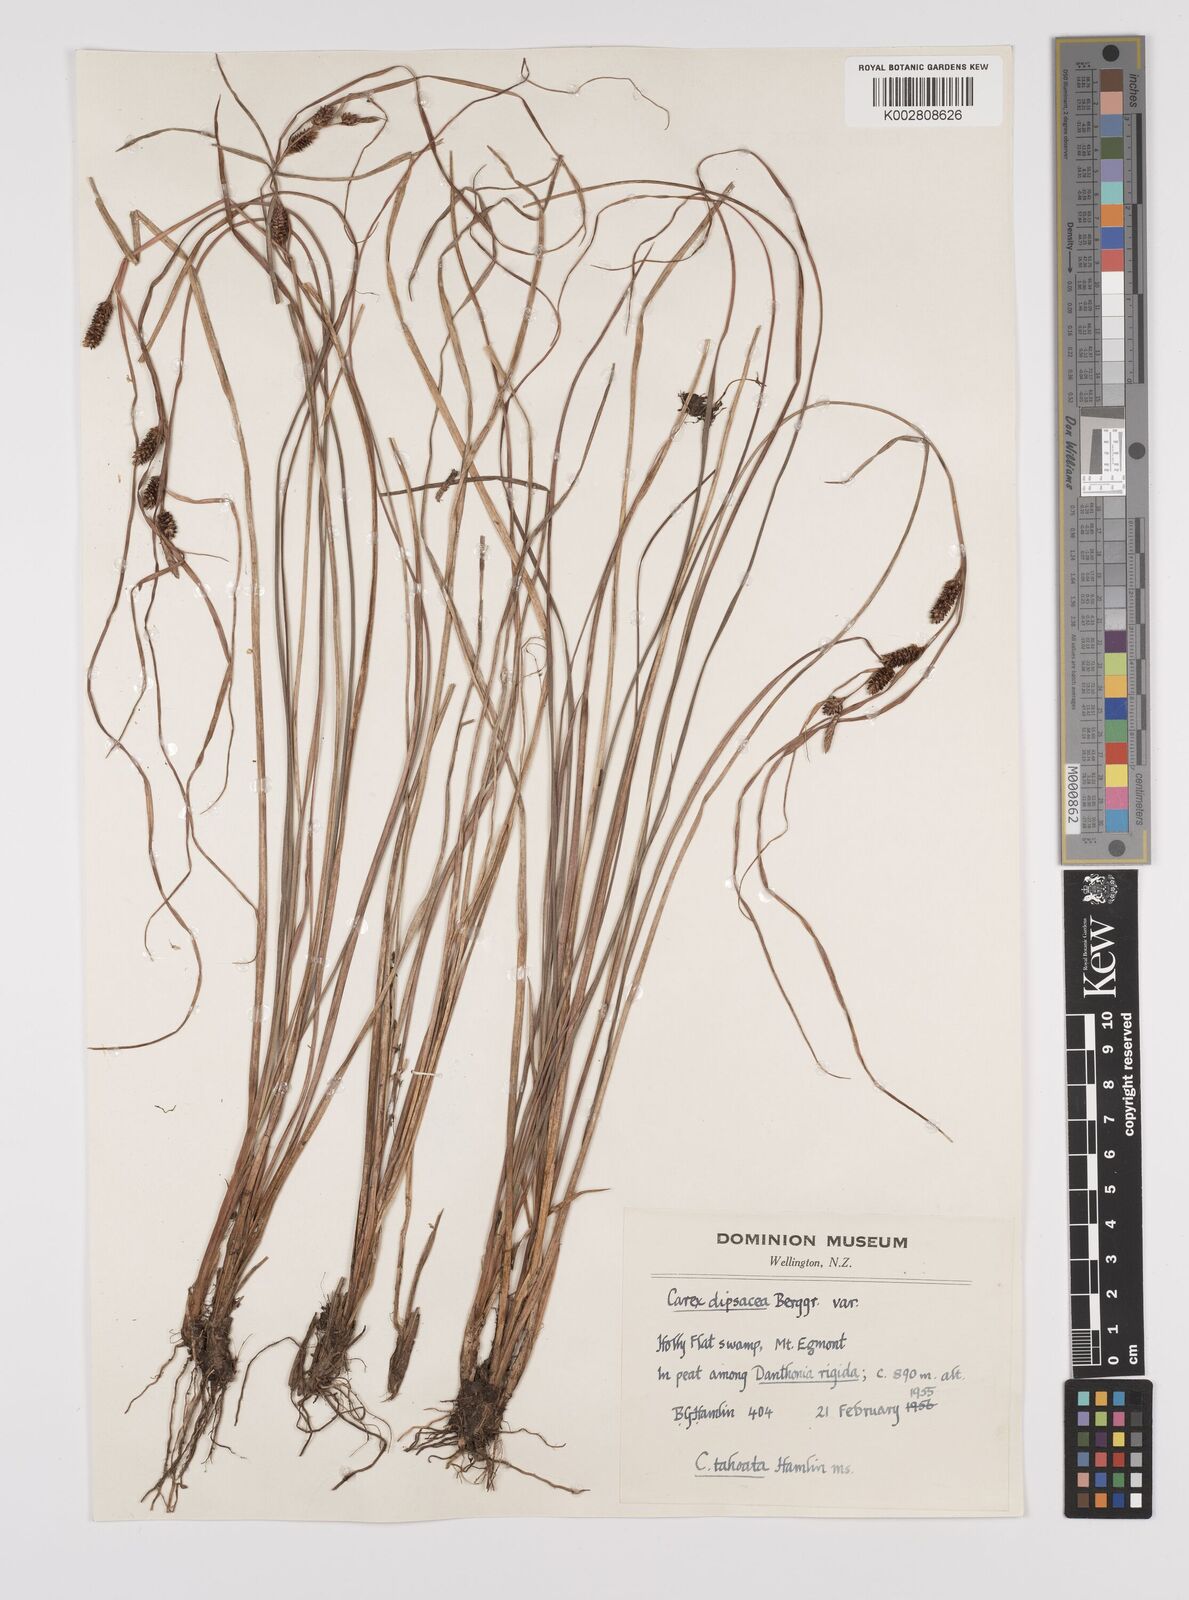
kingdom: Plantae
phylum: Tracheophyta
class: Liliopsida
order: Poales
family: Cyperaceae
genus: Carex
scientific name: Carex dipsacea
